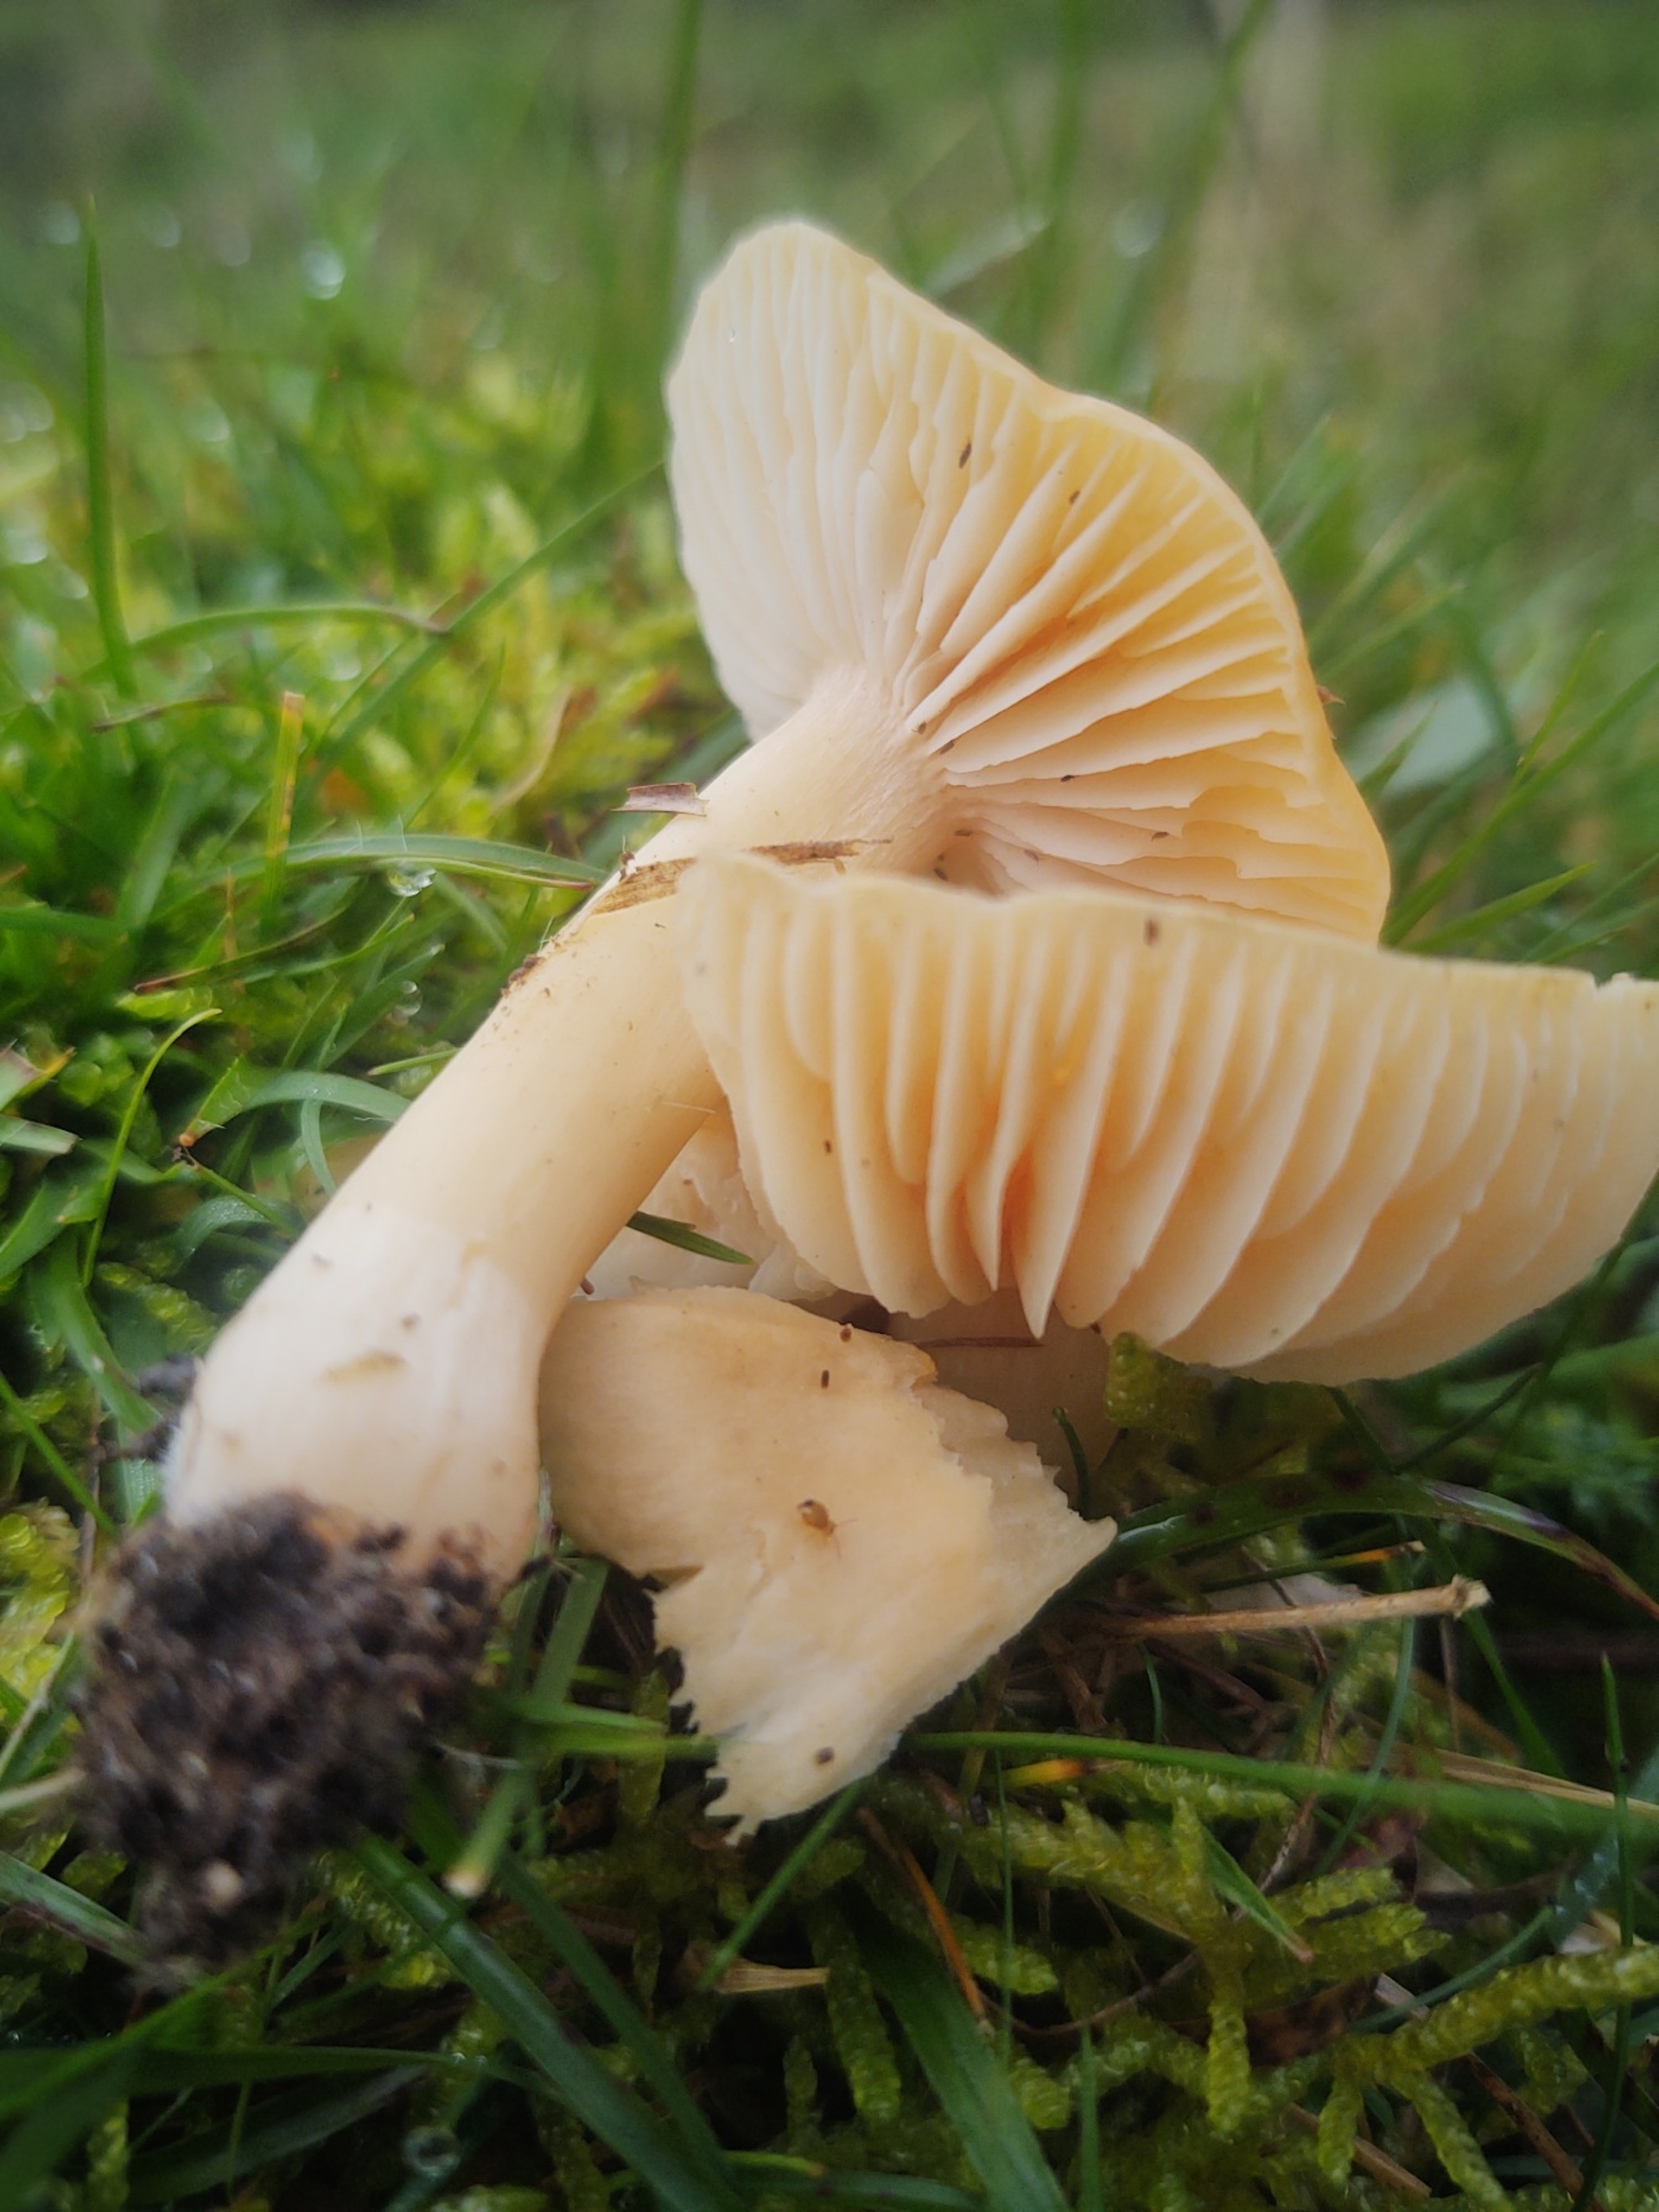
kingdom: Fungi
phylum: Basidiomycota
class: Agaricomycetes
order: Agaricales
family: Hygrophoraceae
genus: Cuphophyllus
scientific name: Cuphophyllus pratensis
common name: Eng-vokshat
